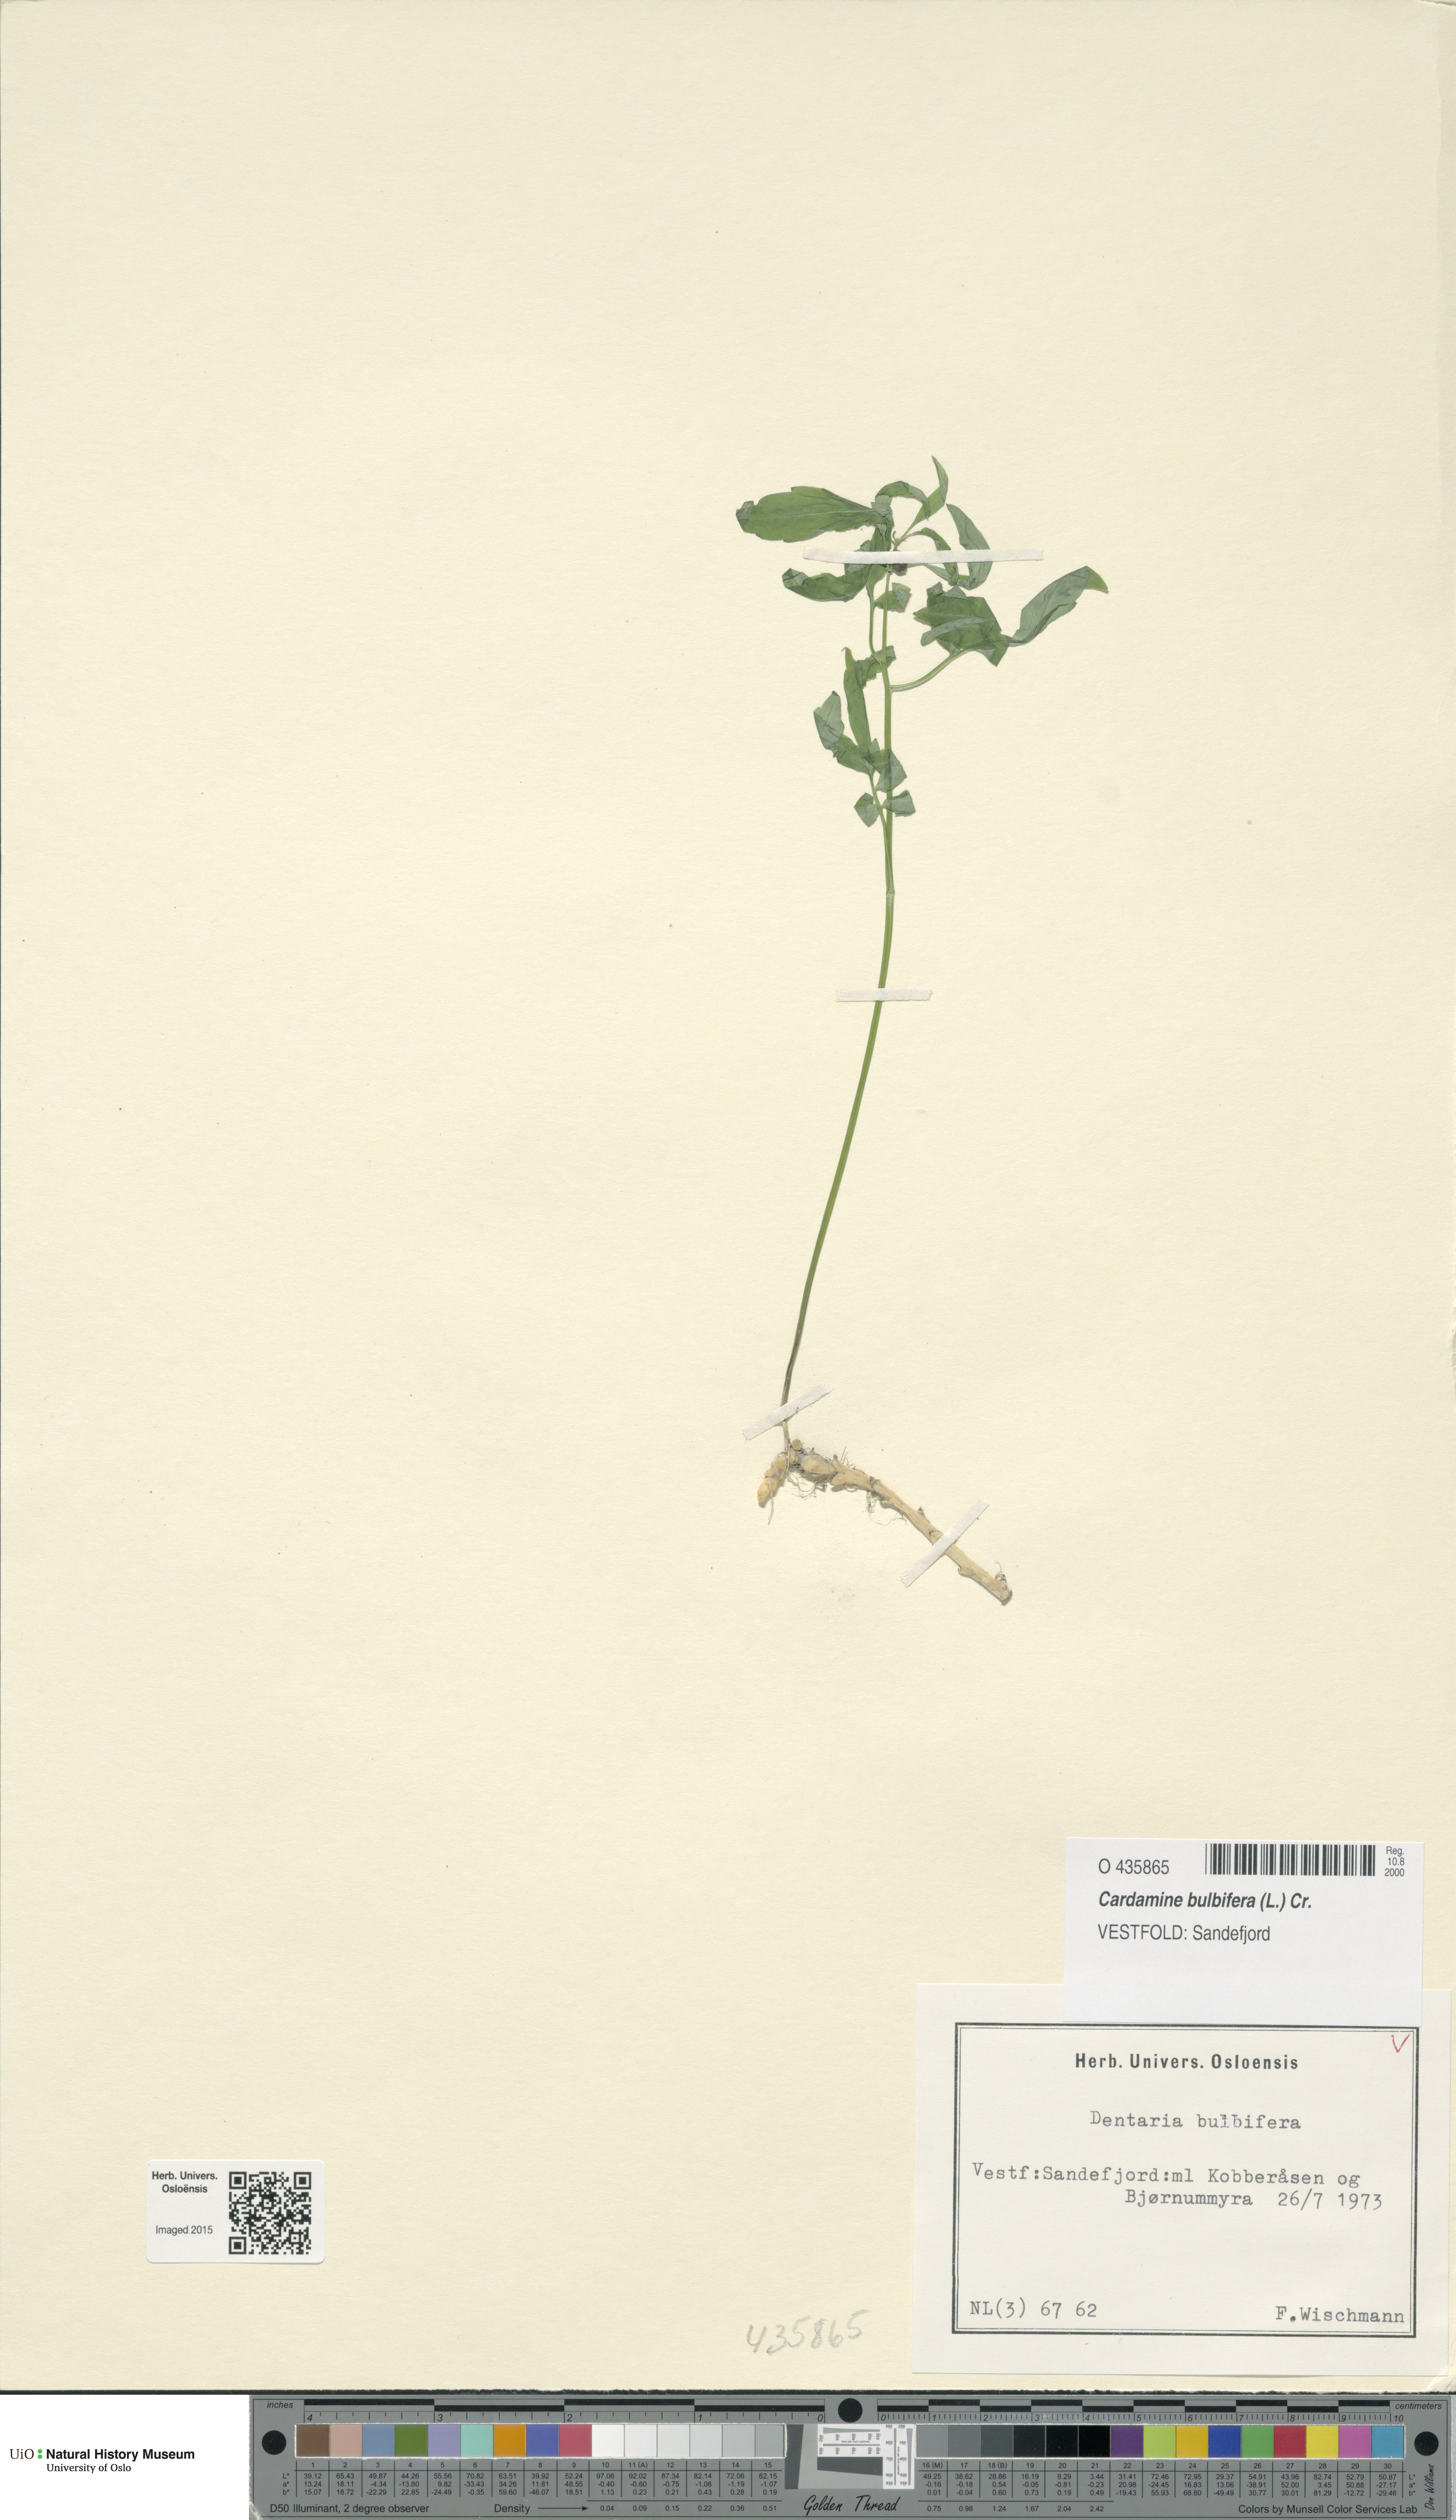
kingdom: Plantae
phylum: Tracheophyta
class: Magnoliopsida
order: Brassicales
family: Brassicaceae
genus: Cardamine
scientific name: Cardamine bulbifera
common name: Coralroot bittercress
